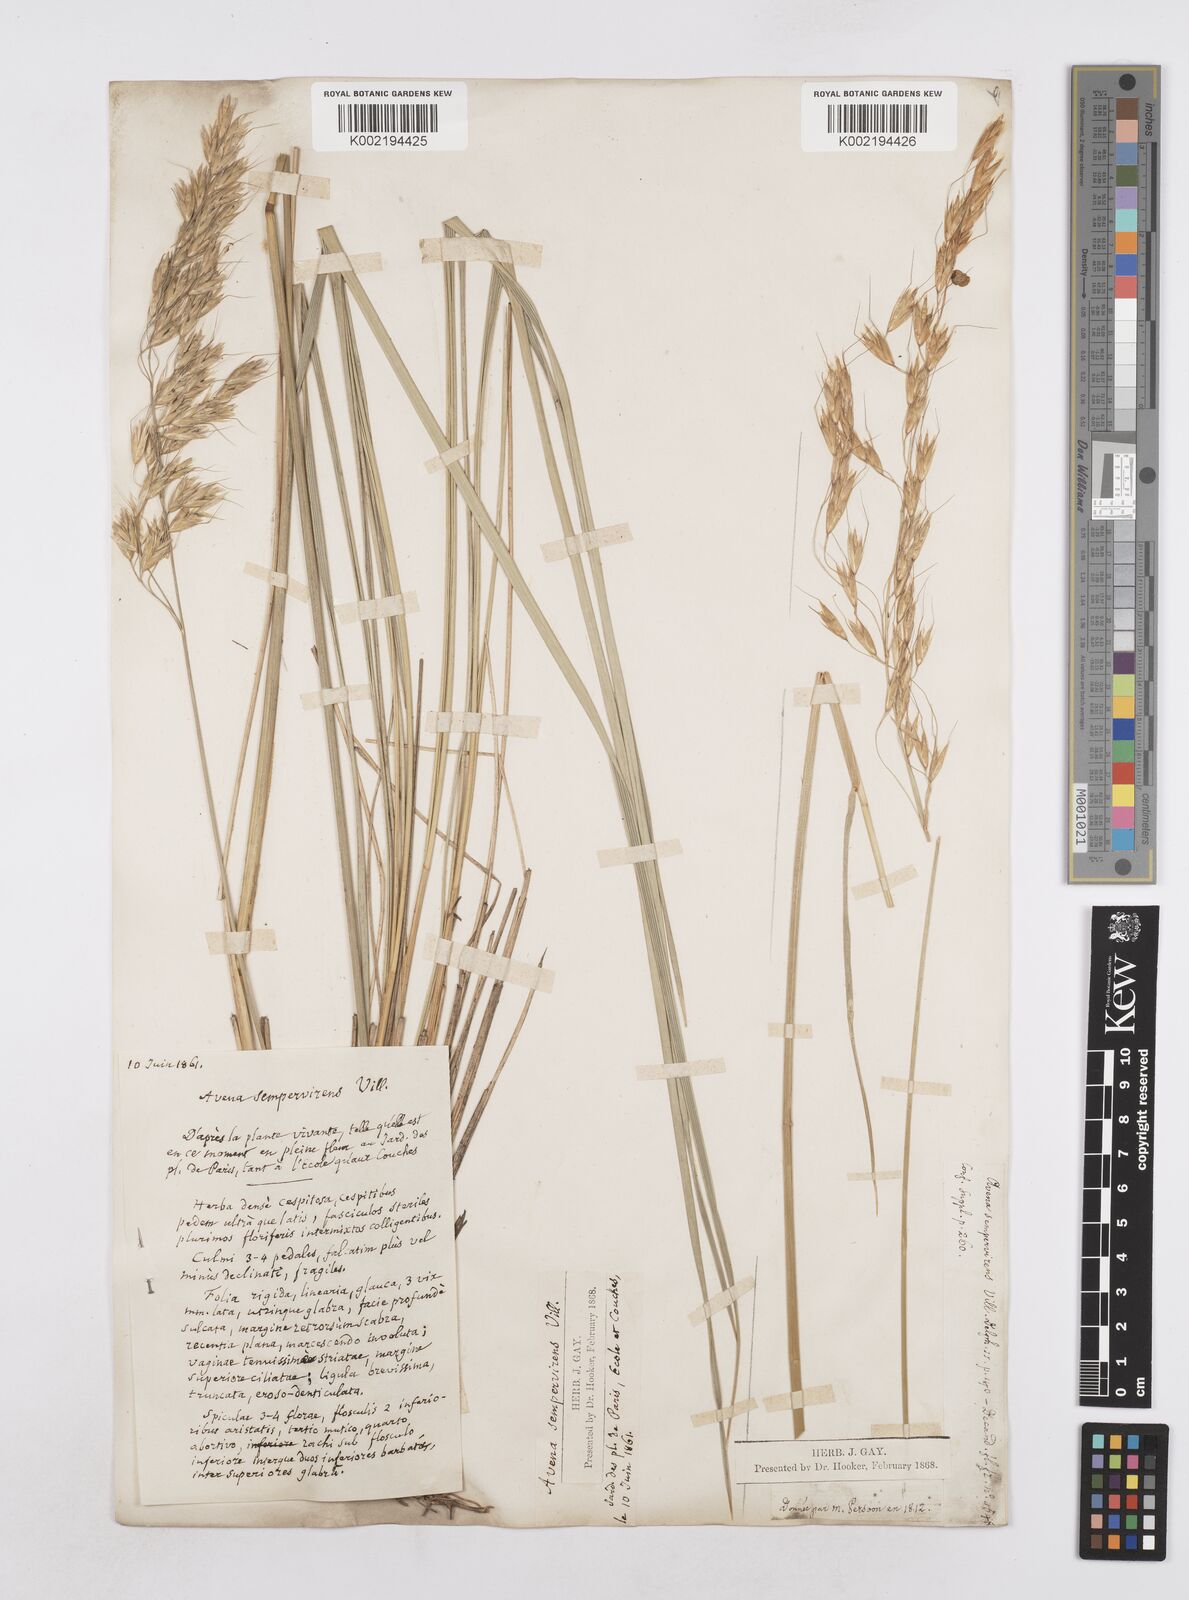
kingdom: Plantae
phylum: Tracheophyta
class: Liliopsida
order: Poales
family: Poaceae
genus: Helictotrichon
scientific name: Helictotrichon sempervirens
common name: Blue oat-grass
